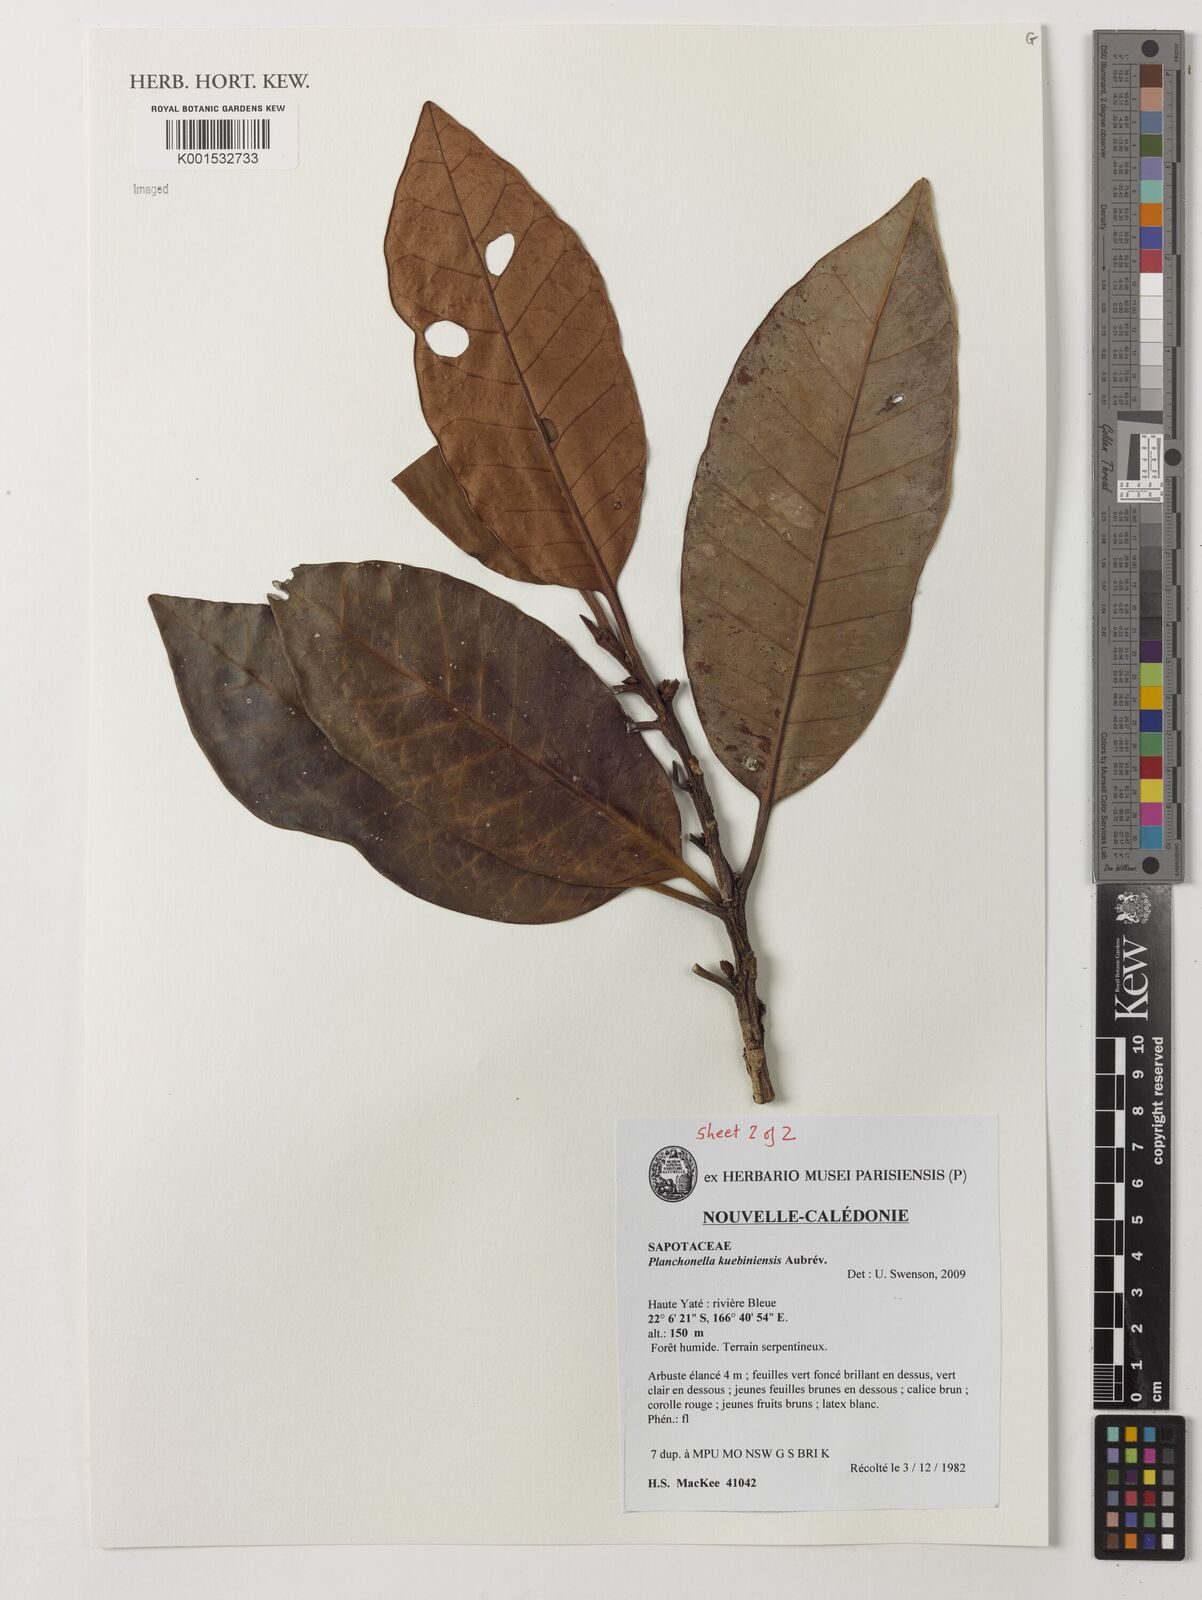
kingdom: Plantae
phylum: Tracheophyta
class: Magnoliopsida
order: Ericales
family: Sapotaceae
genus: Planchonella
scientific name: Planchonella kuebiniensis
